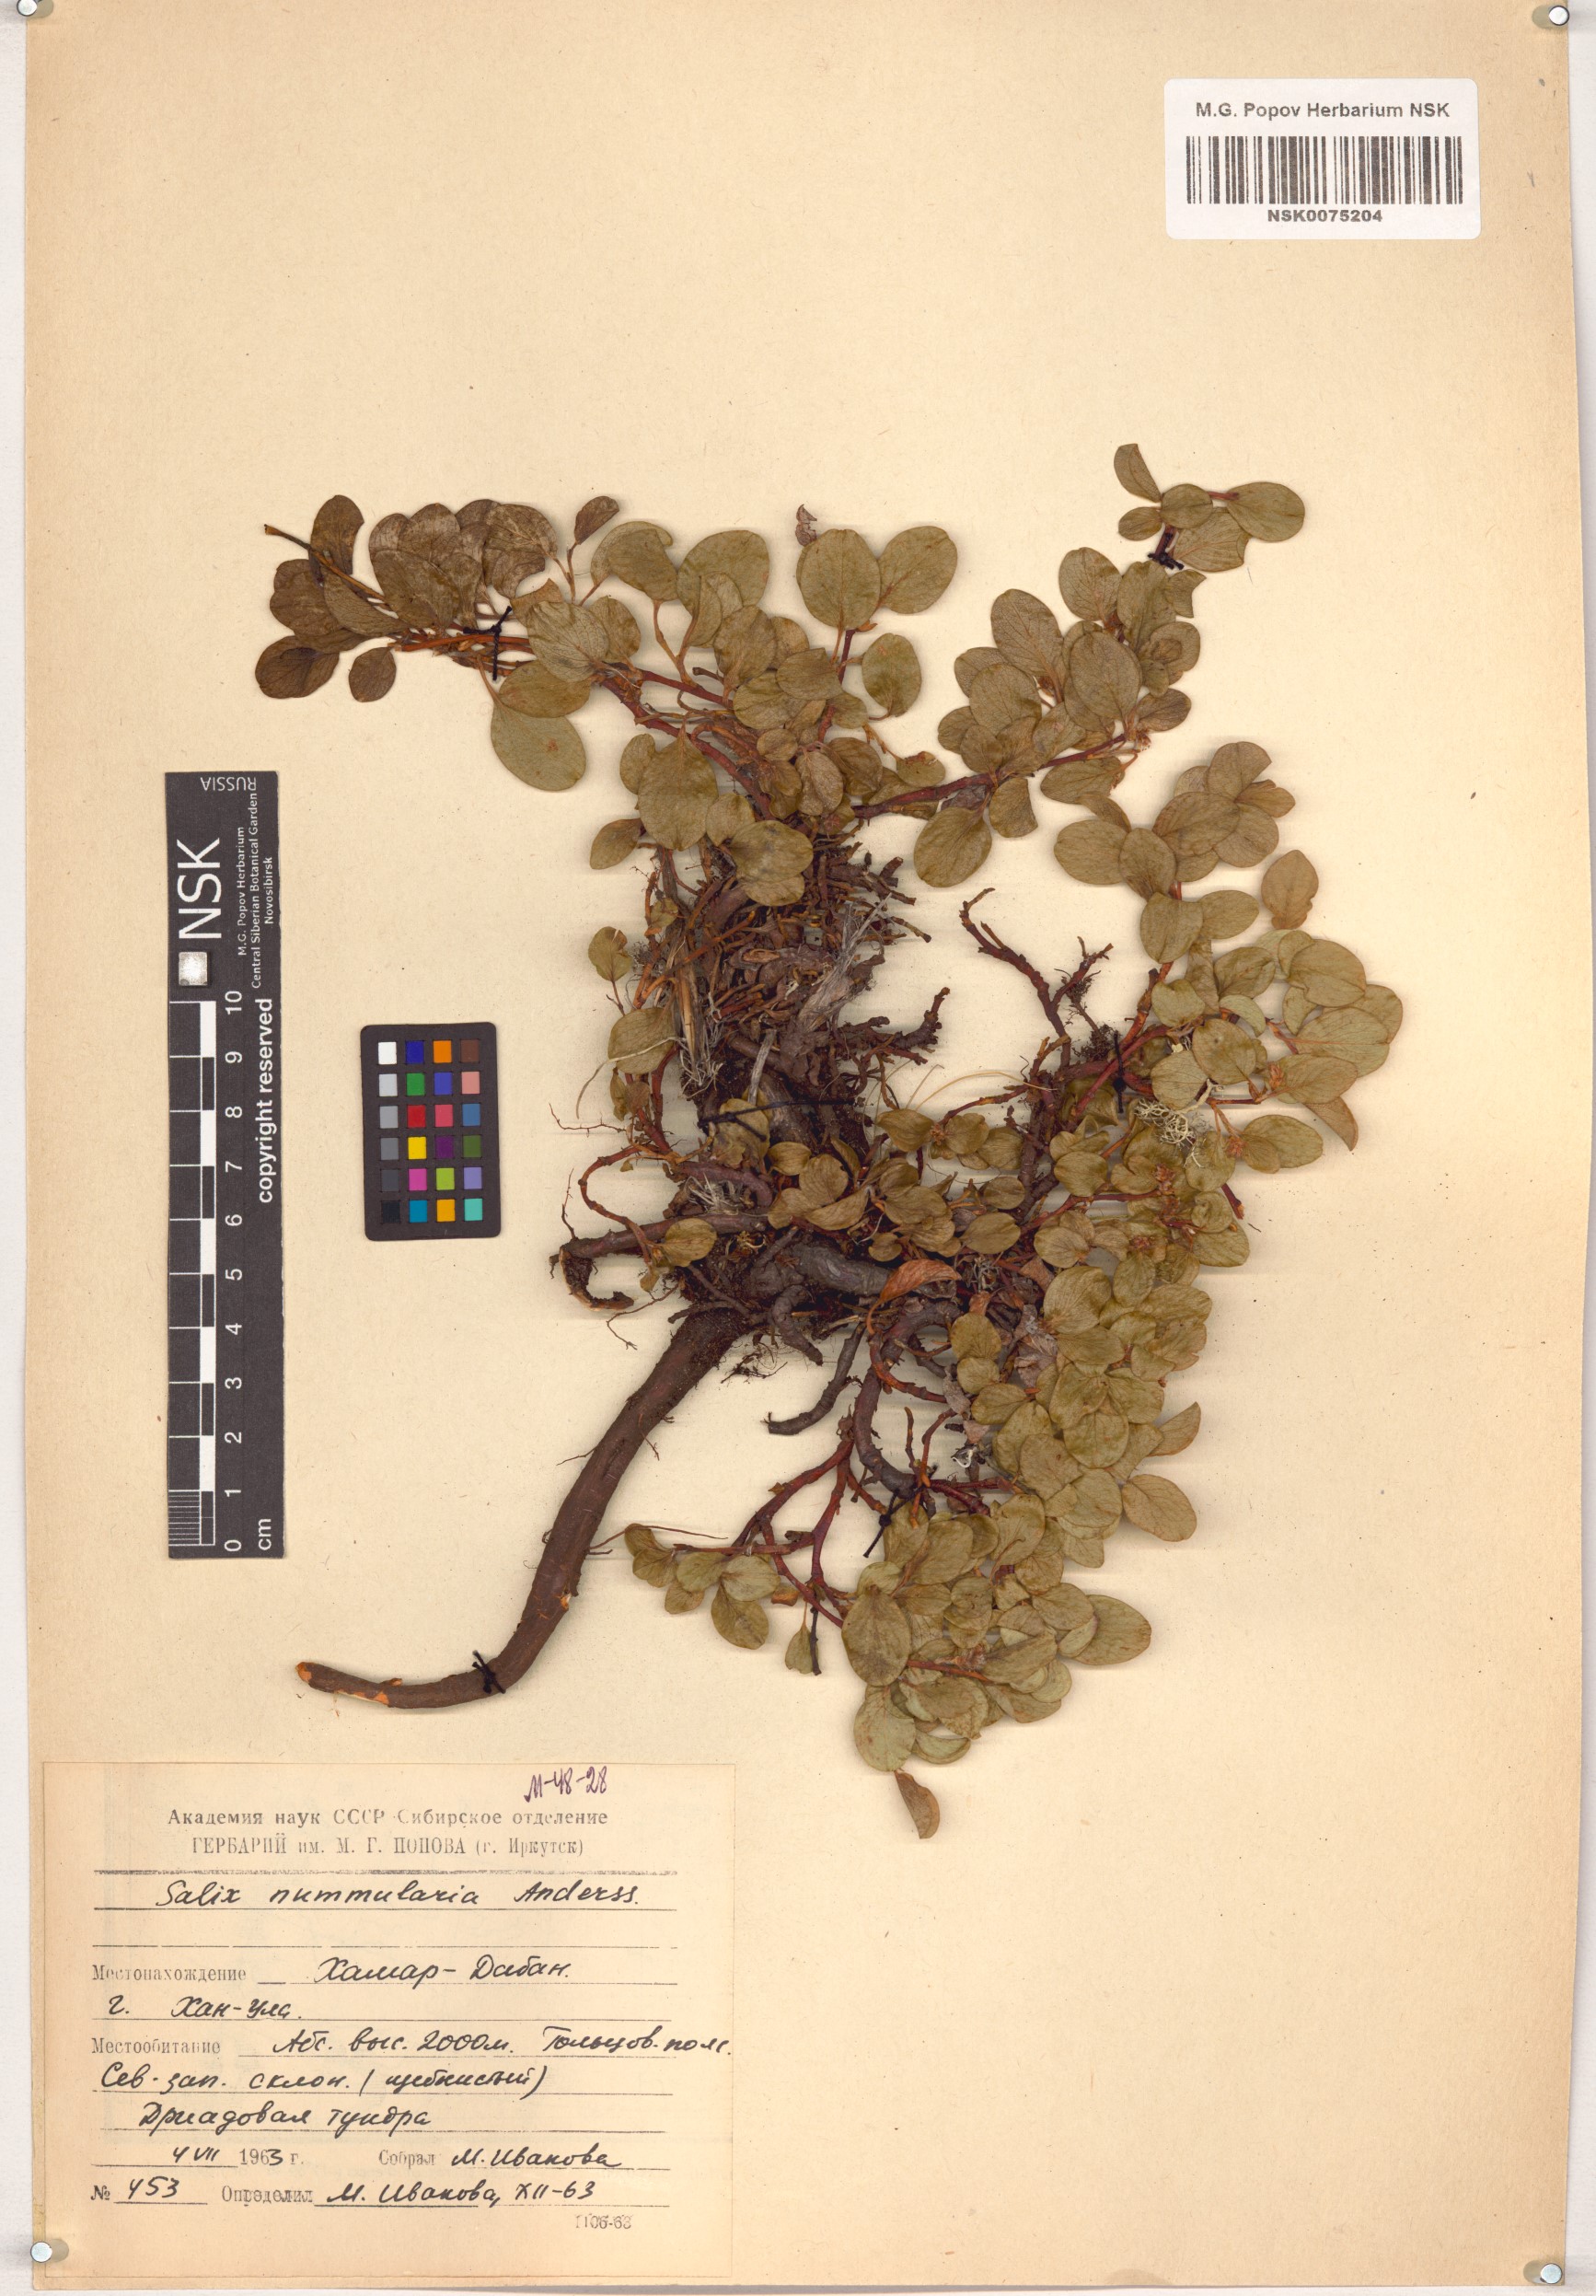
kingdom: Plantae
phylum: Tracheophyta
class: Magnoliopsida
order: Malpighiales
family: Salicaceae
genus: Salix
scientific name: Salix nummularia
